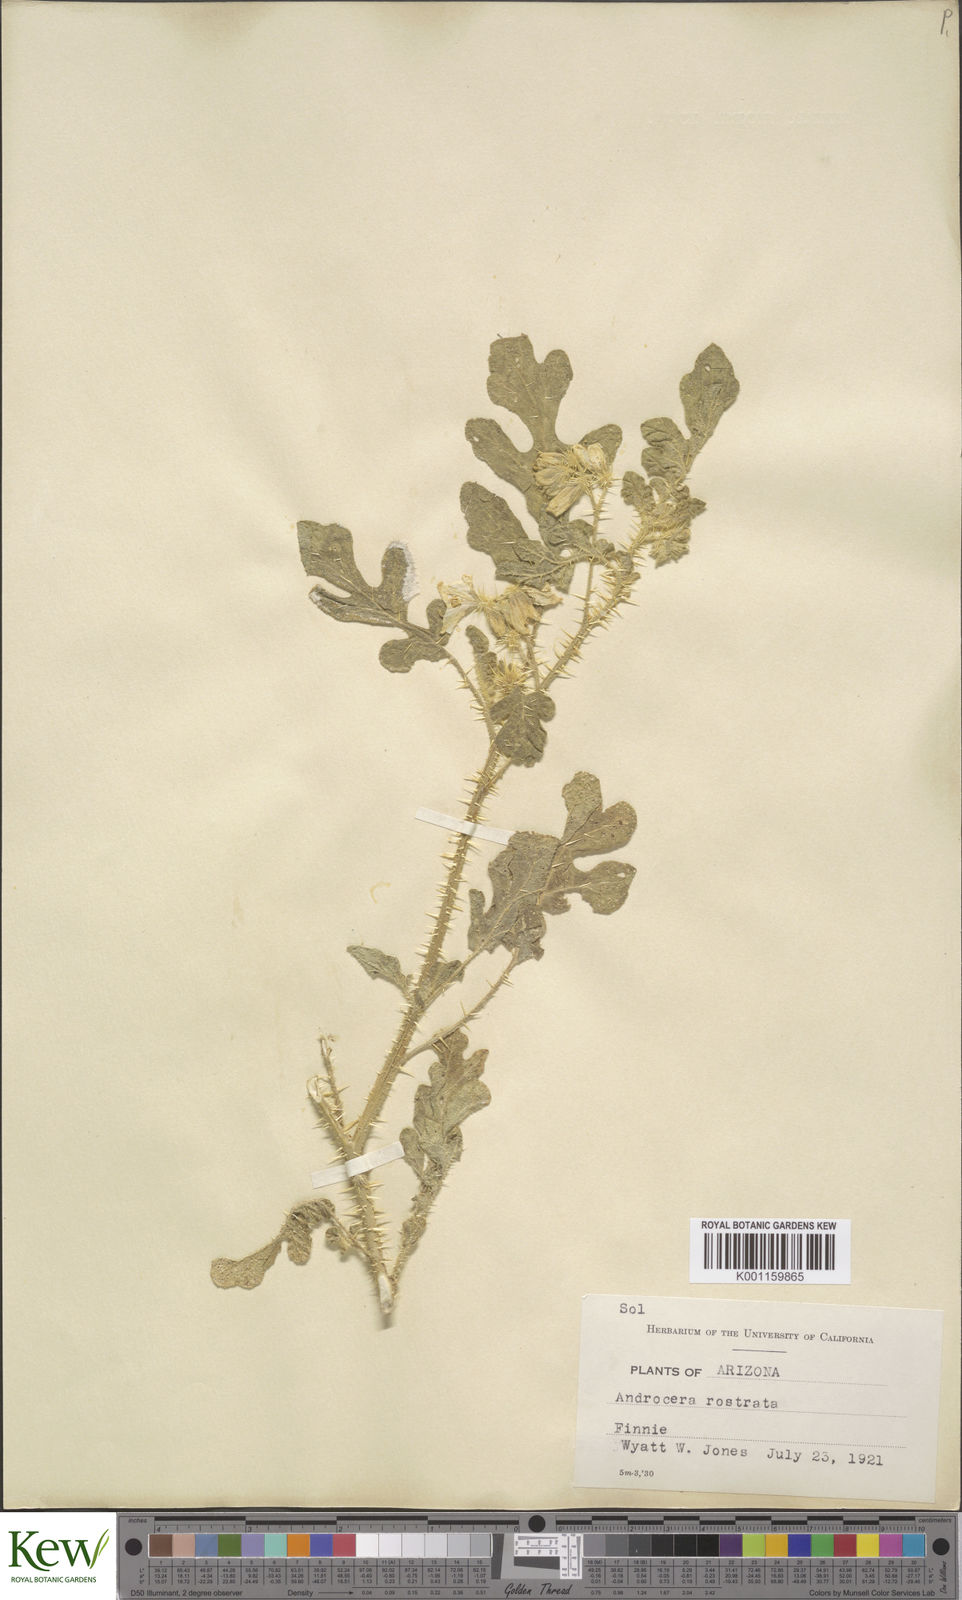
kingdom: Plantae
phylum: Tracheophyta
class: Magnoliopsida
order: Solanales
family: Solanaceae
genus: Solanum
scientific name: Solanum angustifolium
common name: Buffalobur nightshade
